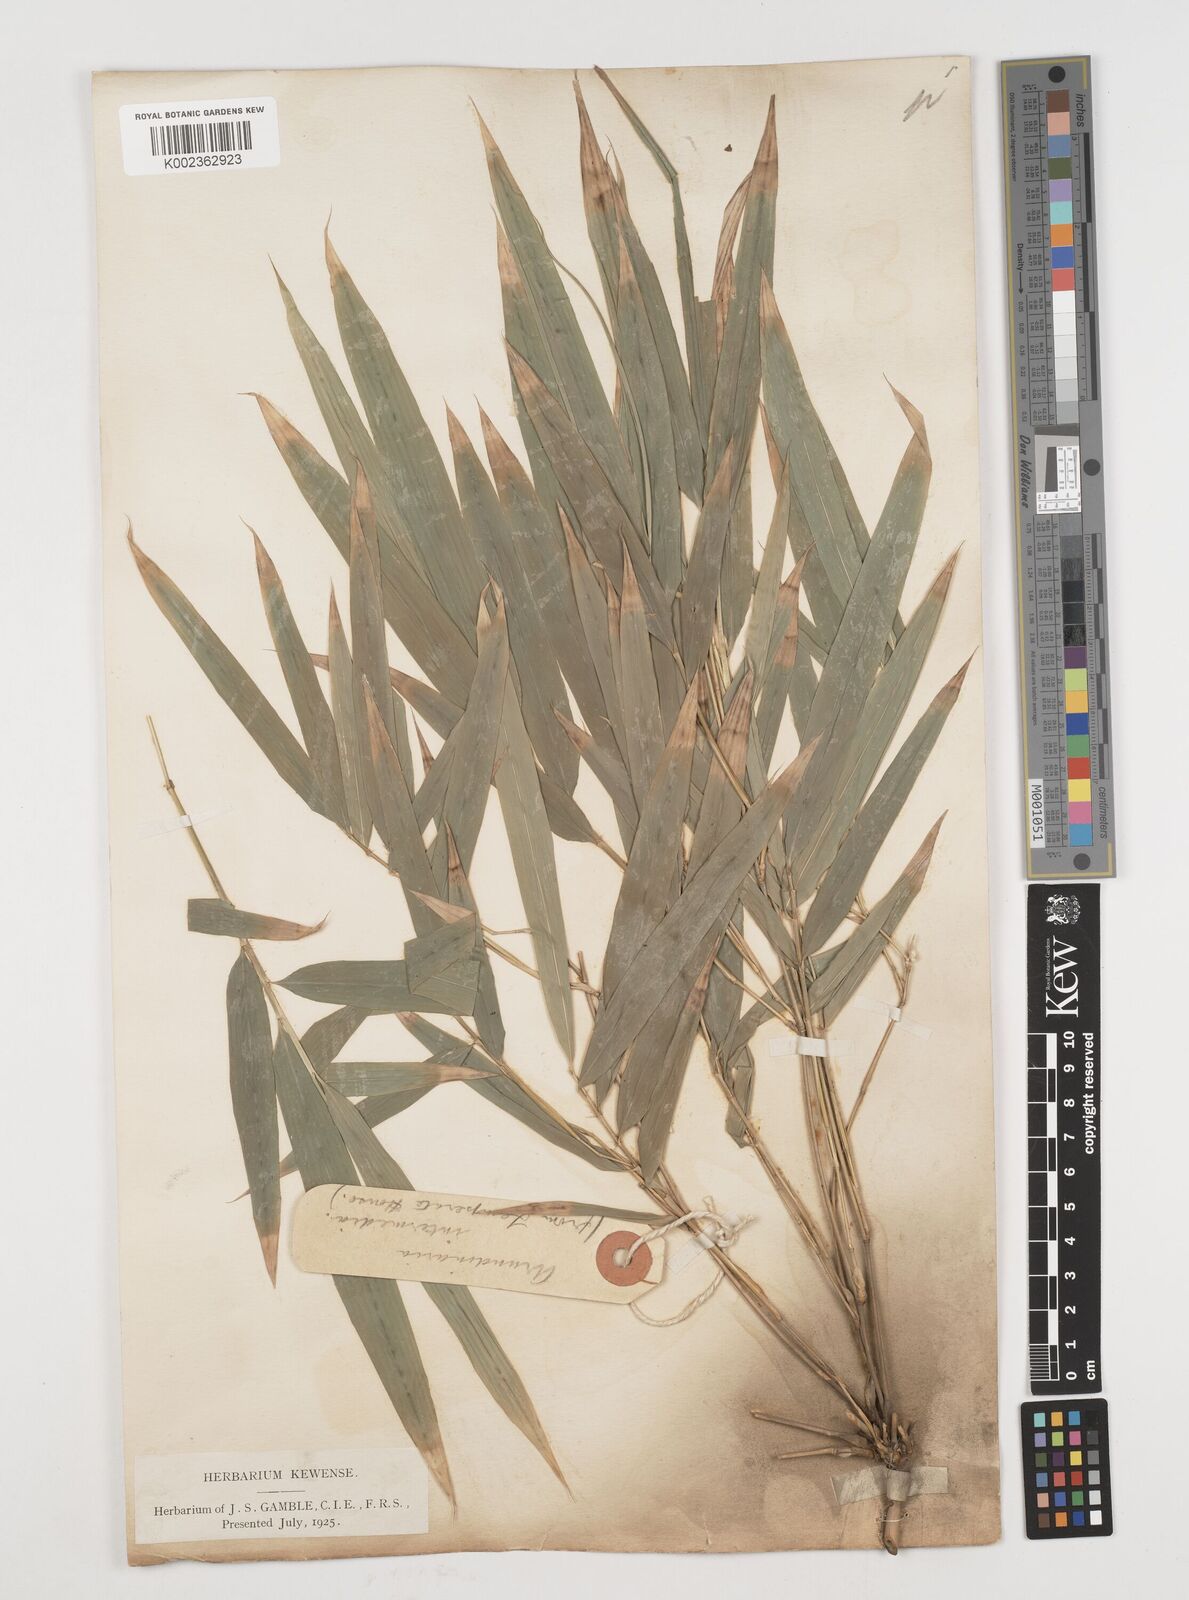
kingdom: Plantae
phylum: Tracheophyta
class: Liliopsida
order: Poales
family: Poaceae
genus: Drepanostachyum
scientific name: Drepanostachyum intermedium
